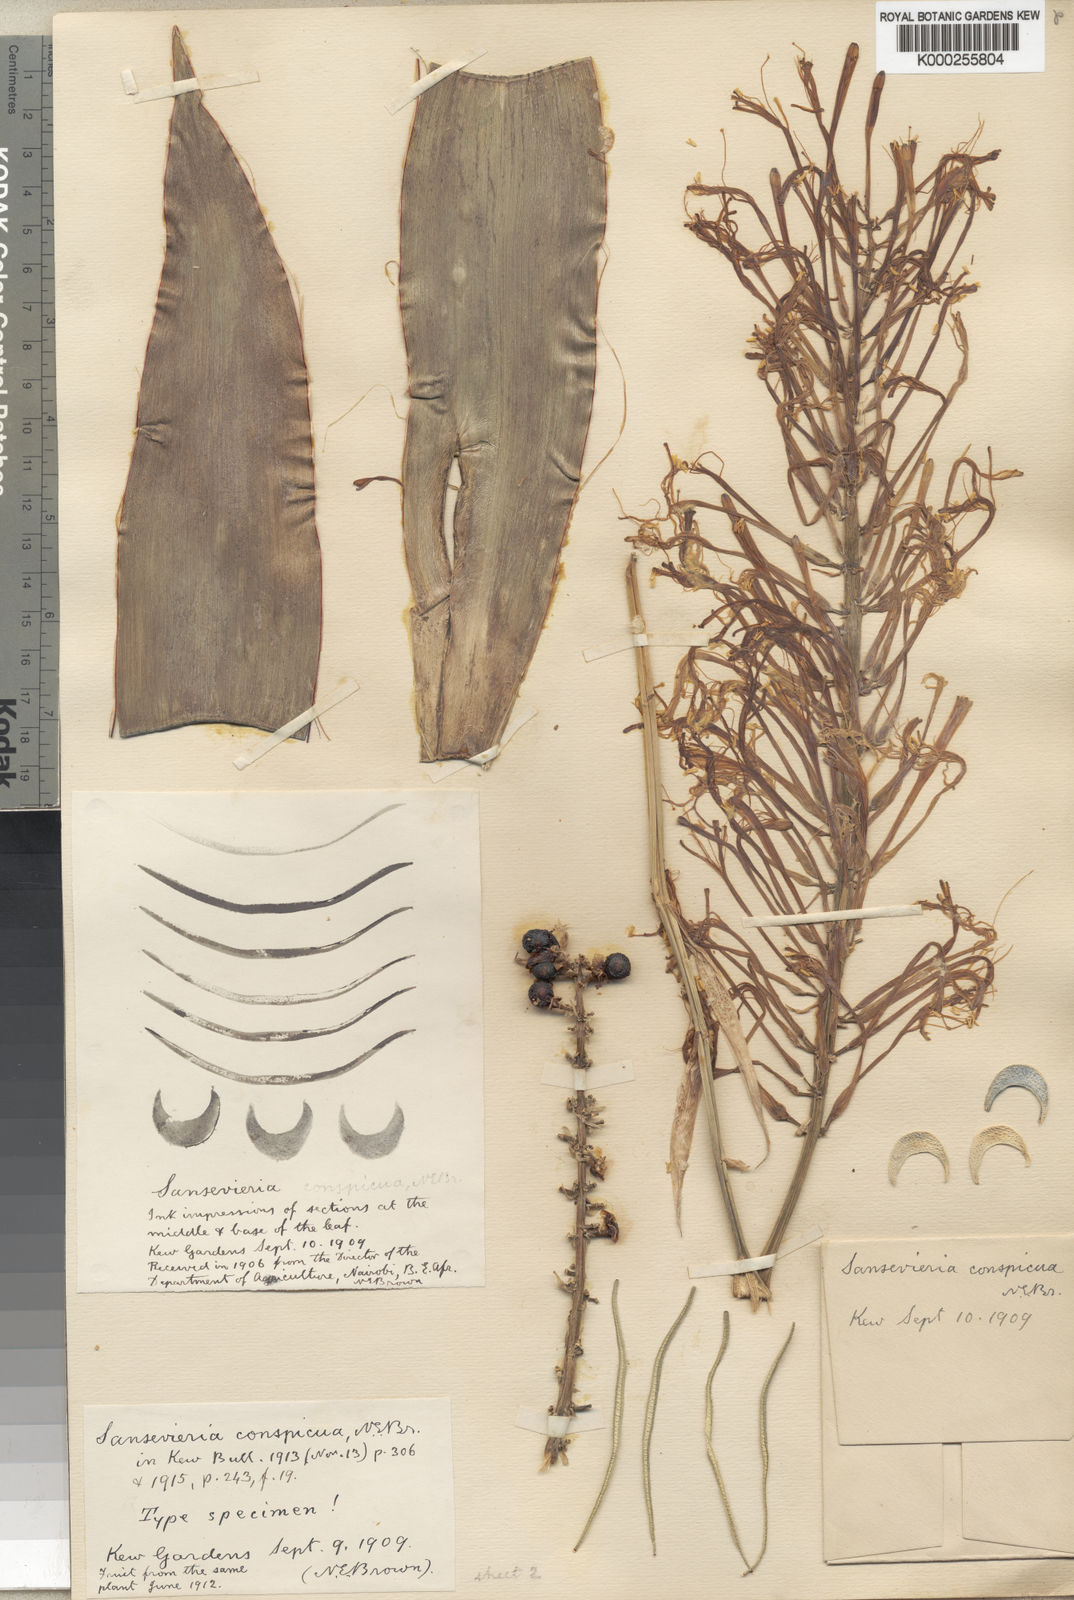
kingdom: Plantae
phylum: Tracheophyta
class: Liliopsida
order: Asparagales
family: Asparagaceae
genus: Dracaena
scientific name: Dracaena conspicua
